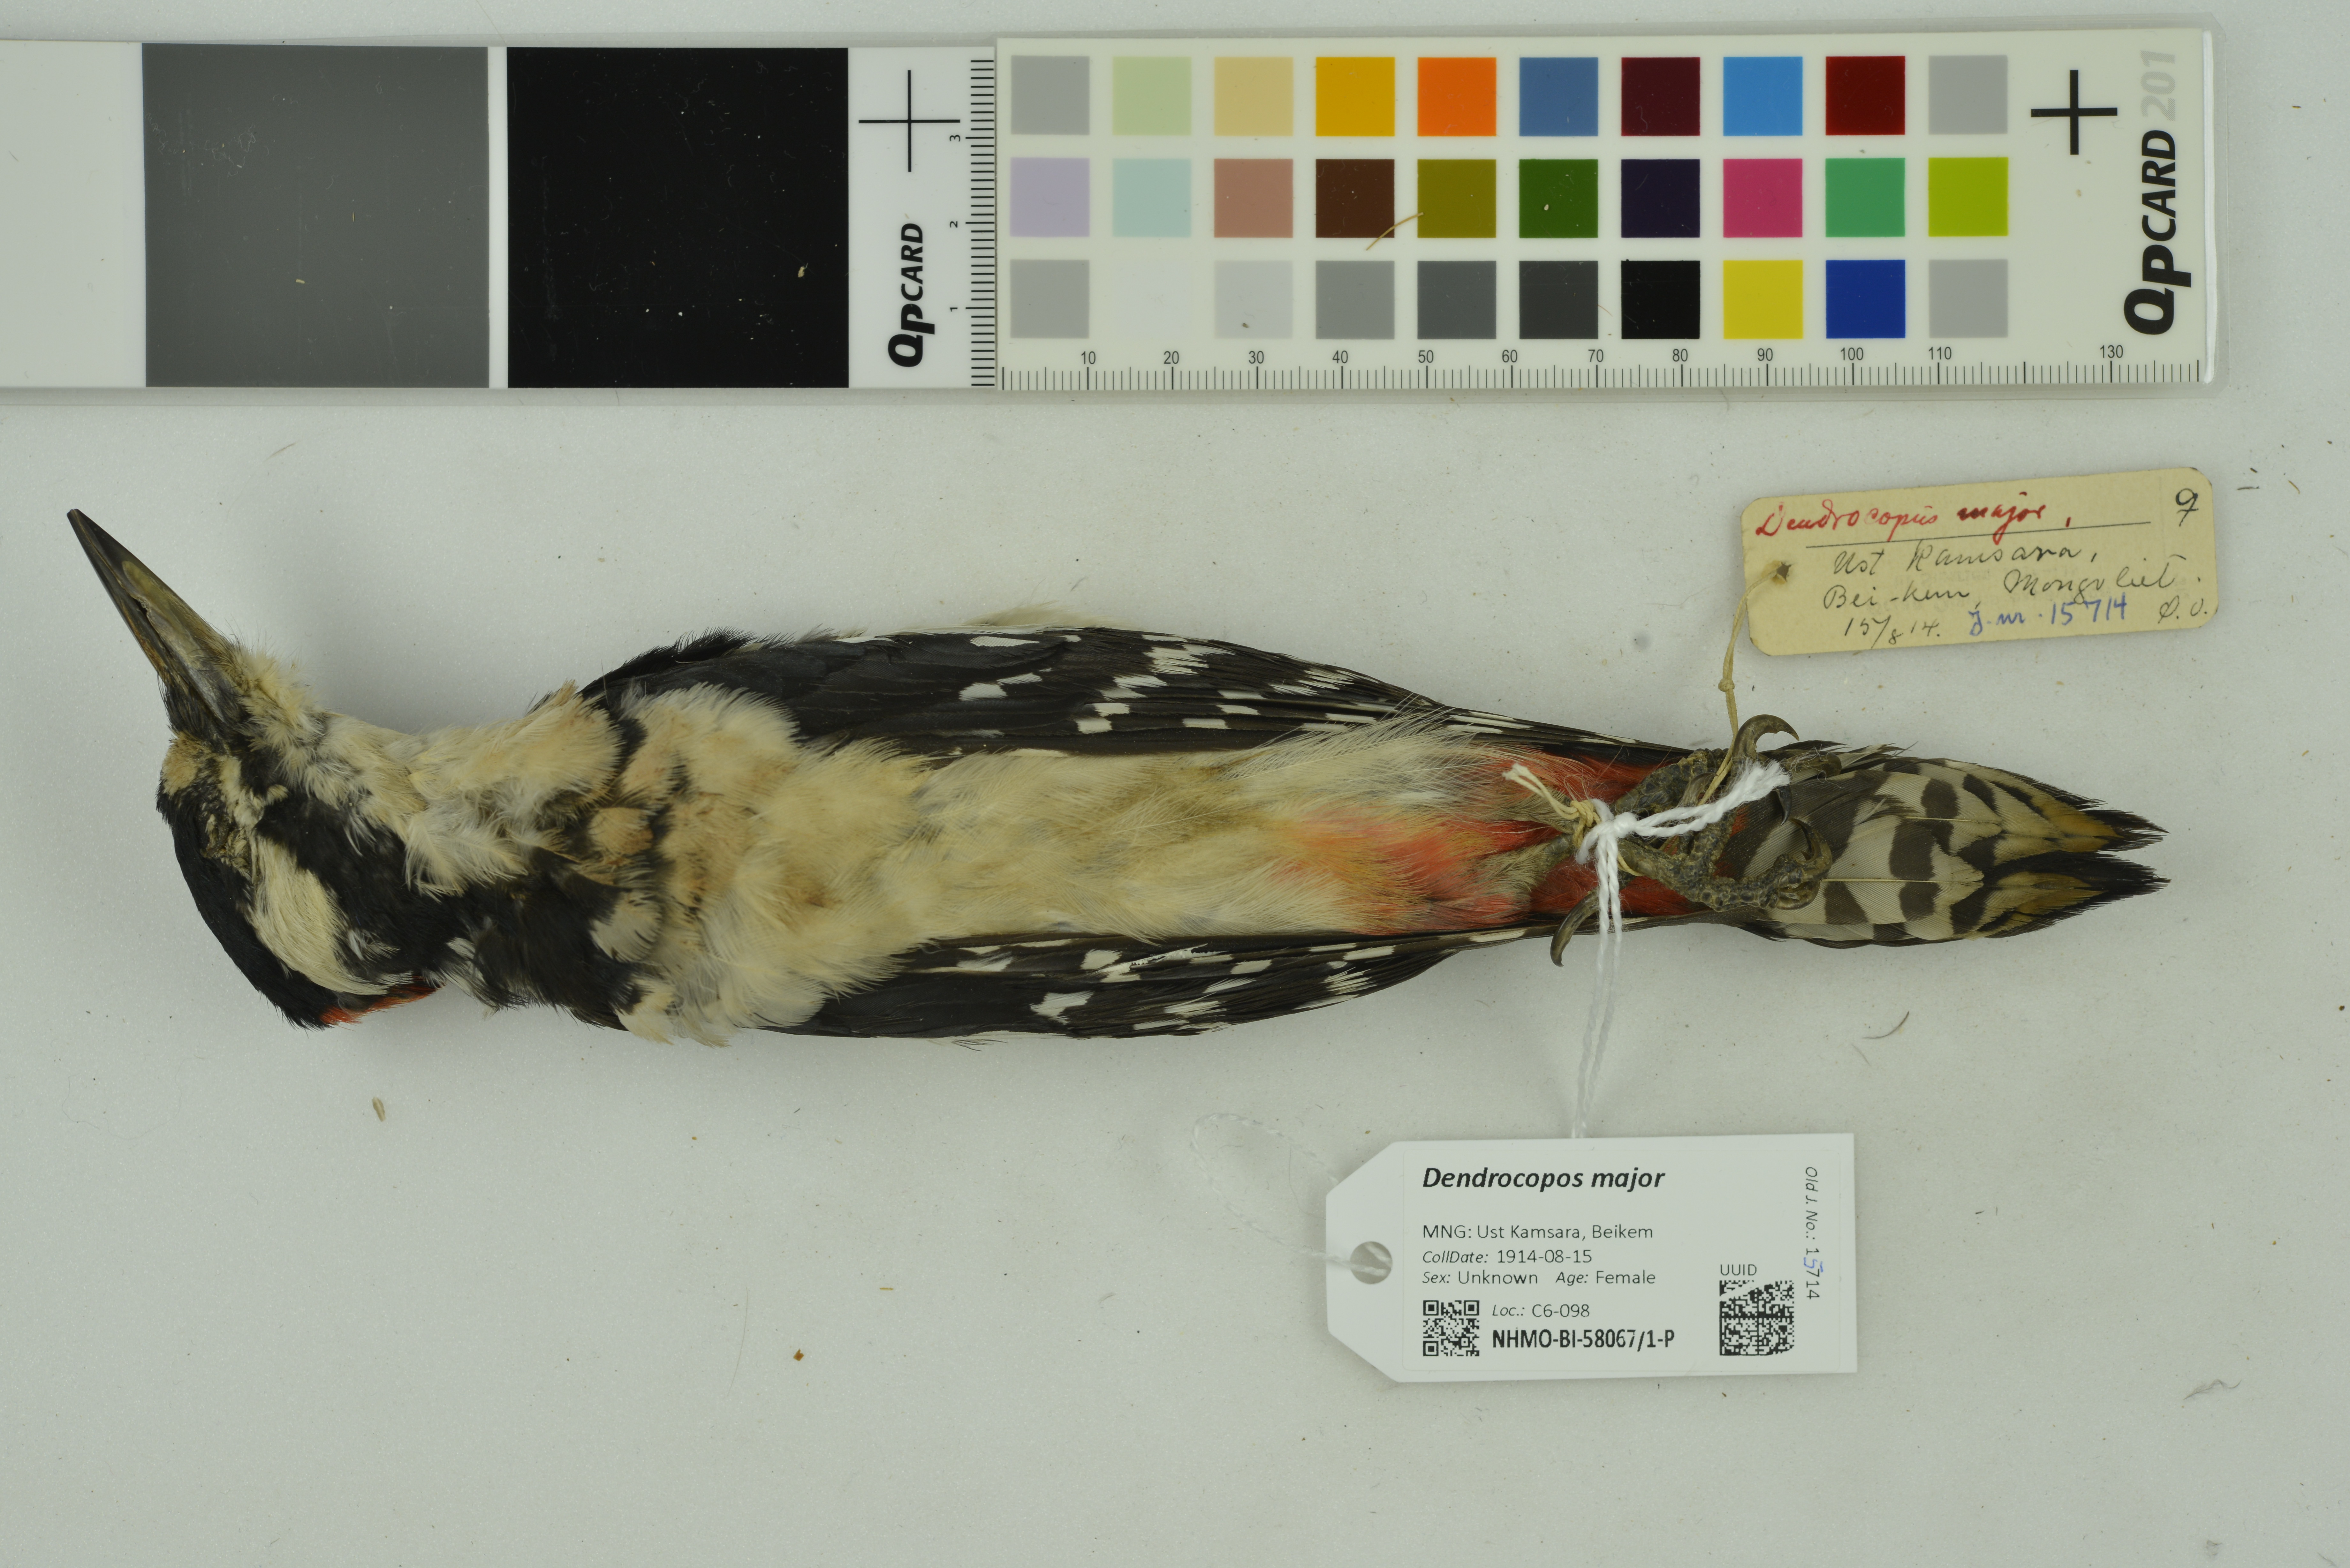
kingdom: Animalia
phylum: Chordata
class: Aves
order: Piciformes
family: Picidae
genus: Dendrocopos
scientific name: Dendrocopos major
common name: Great spotted woodpecker
